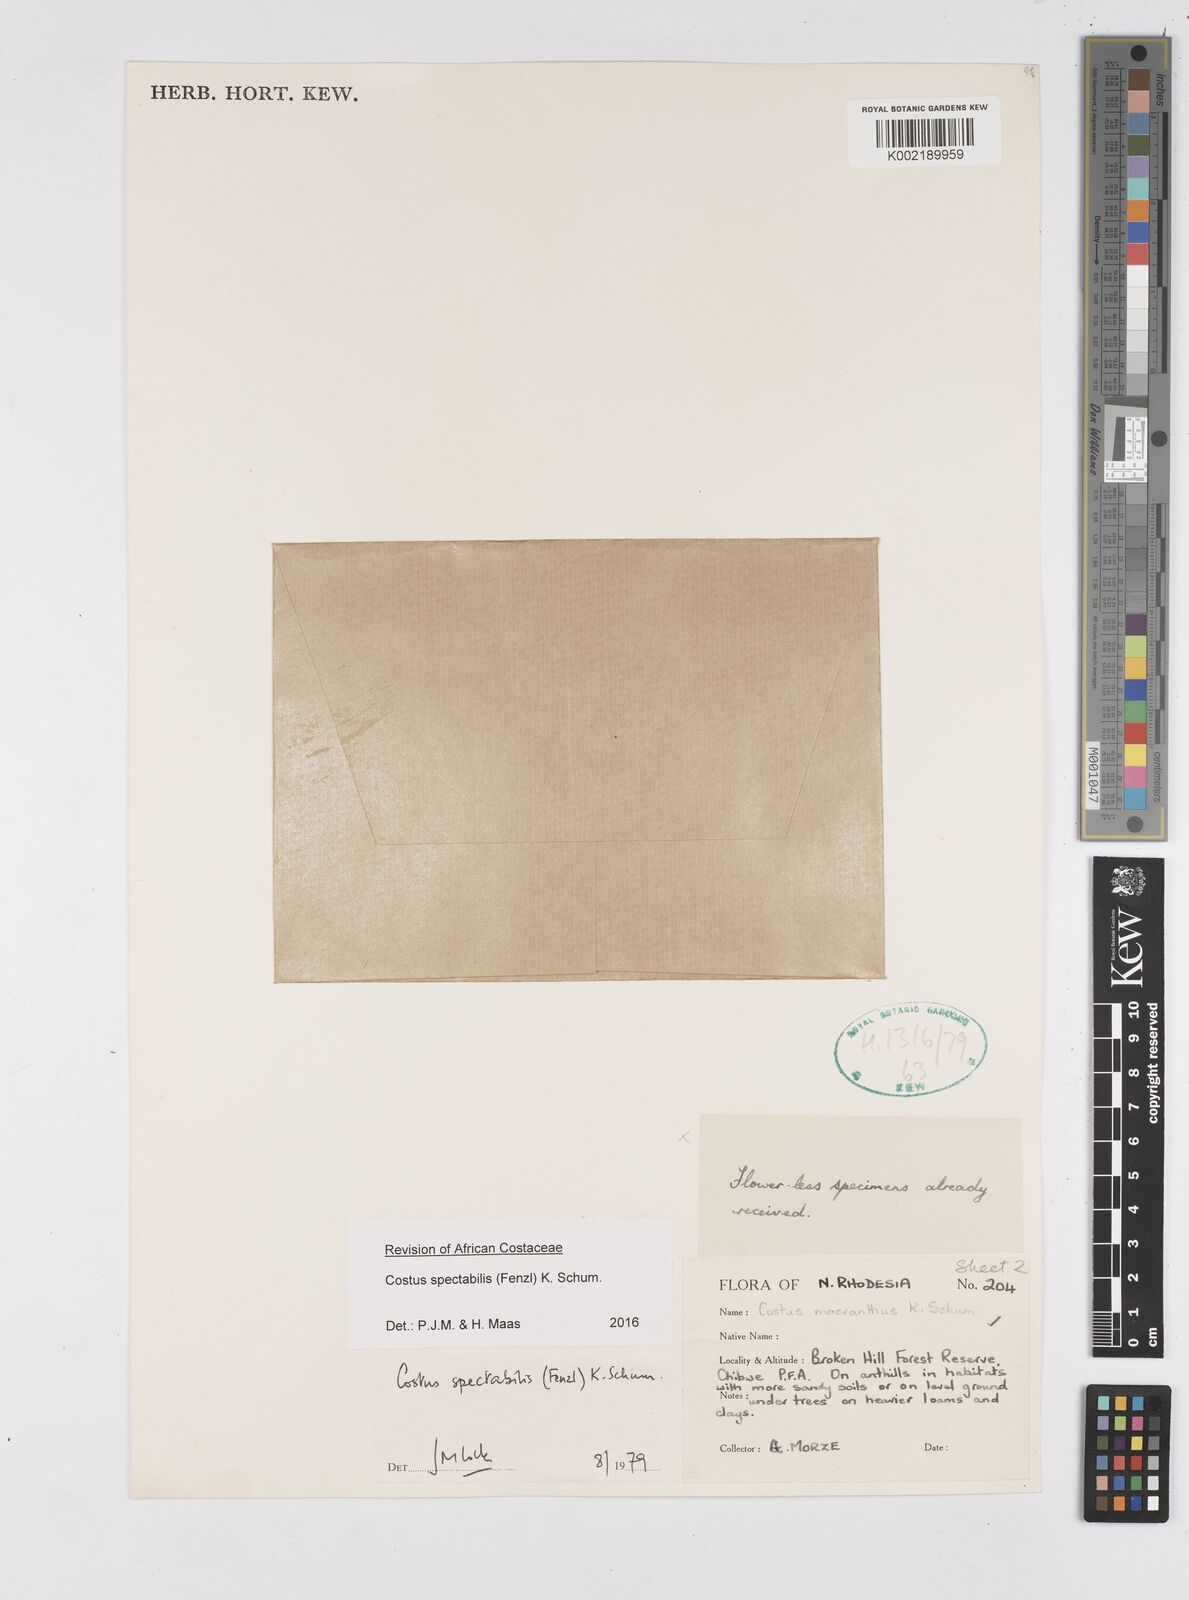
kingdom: Plantae
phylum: Tracheophyta
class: Liliopsida
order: Zingiberales
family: Costaceae
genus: Costus
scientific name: Costus spectabilis
